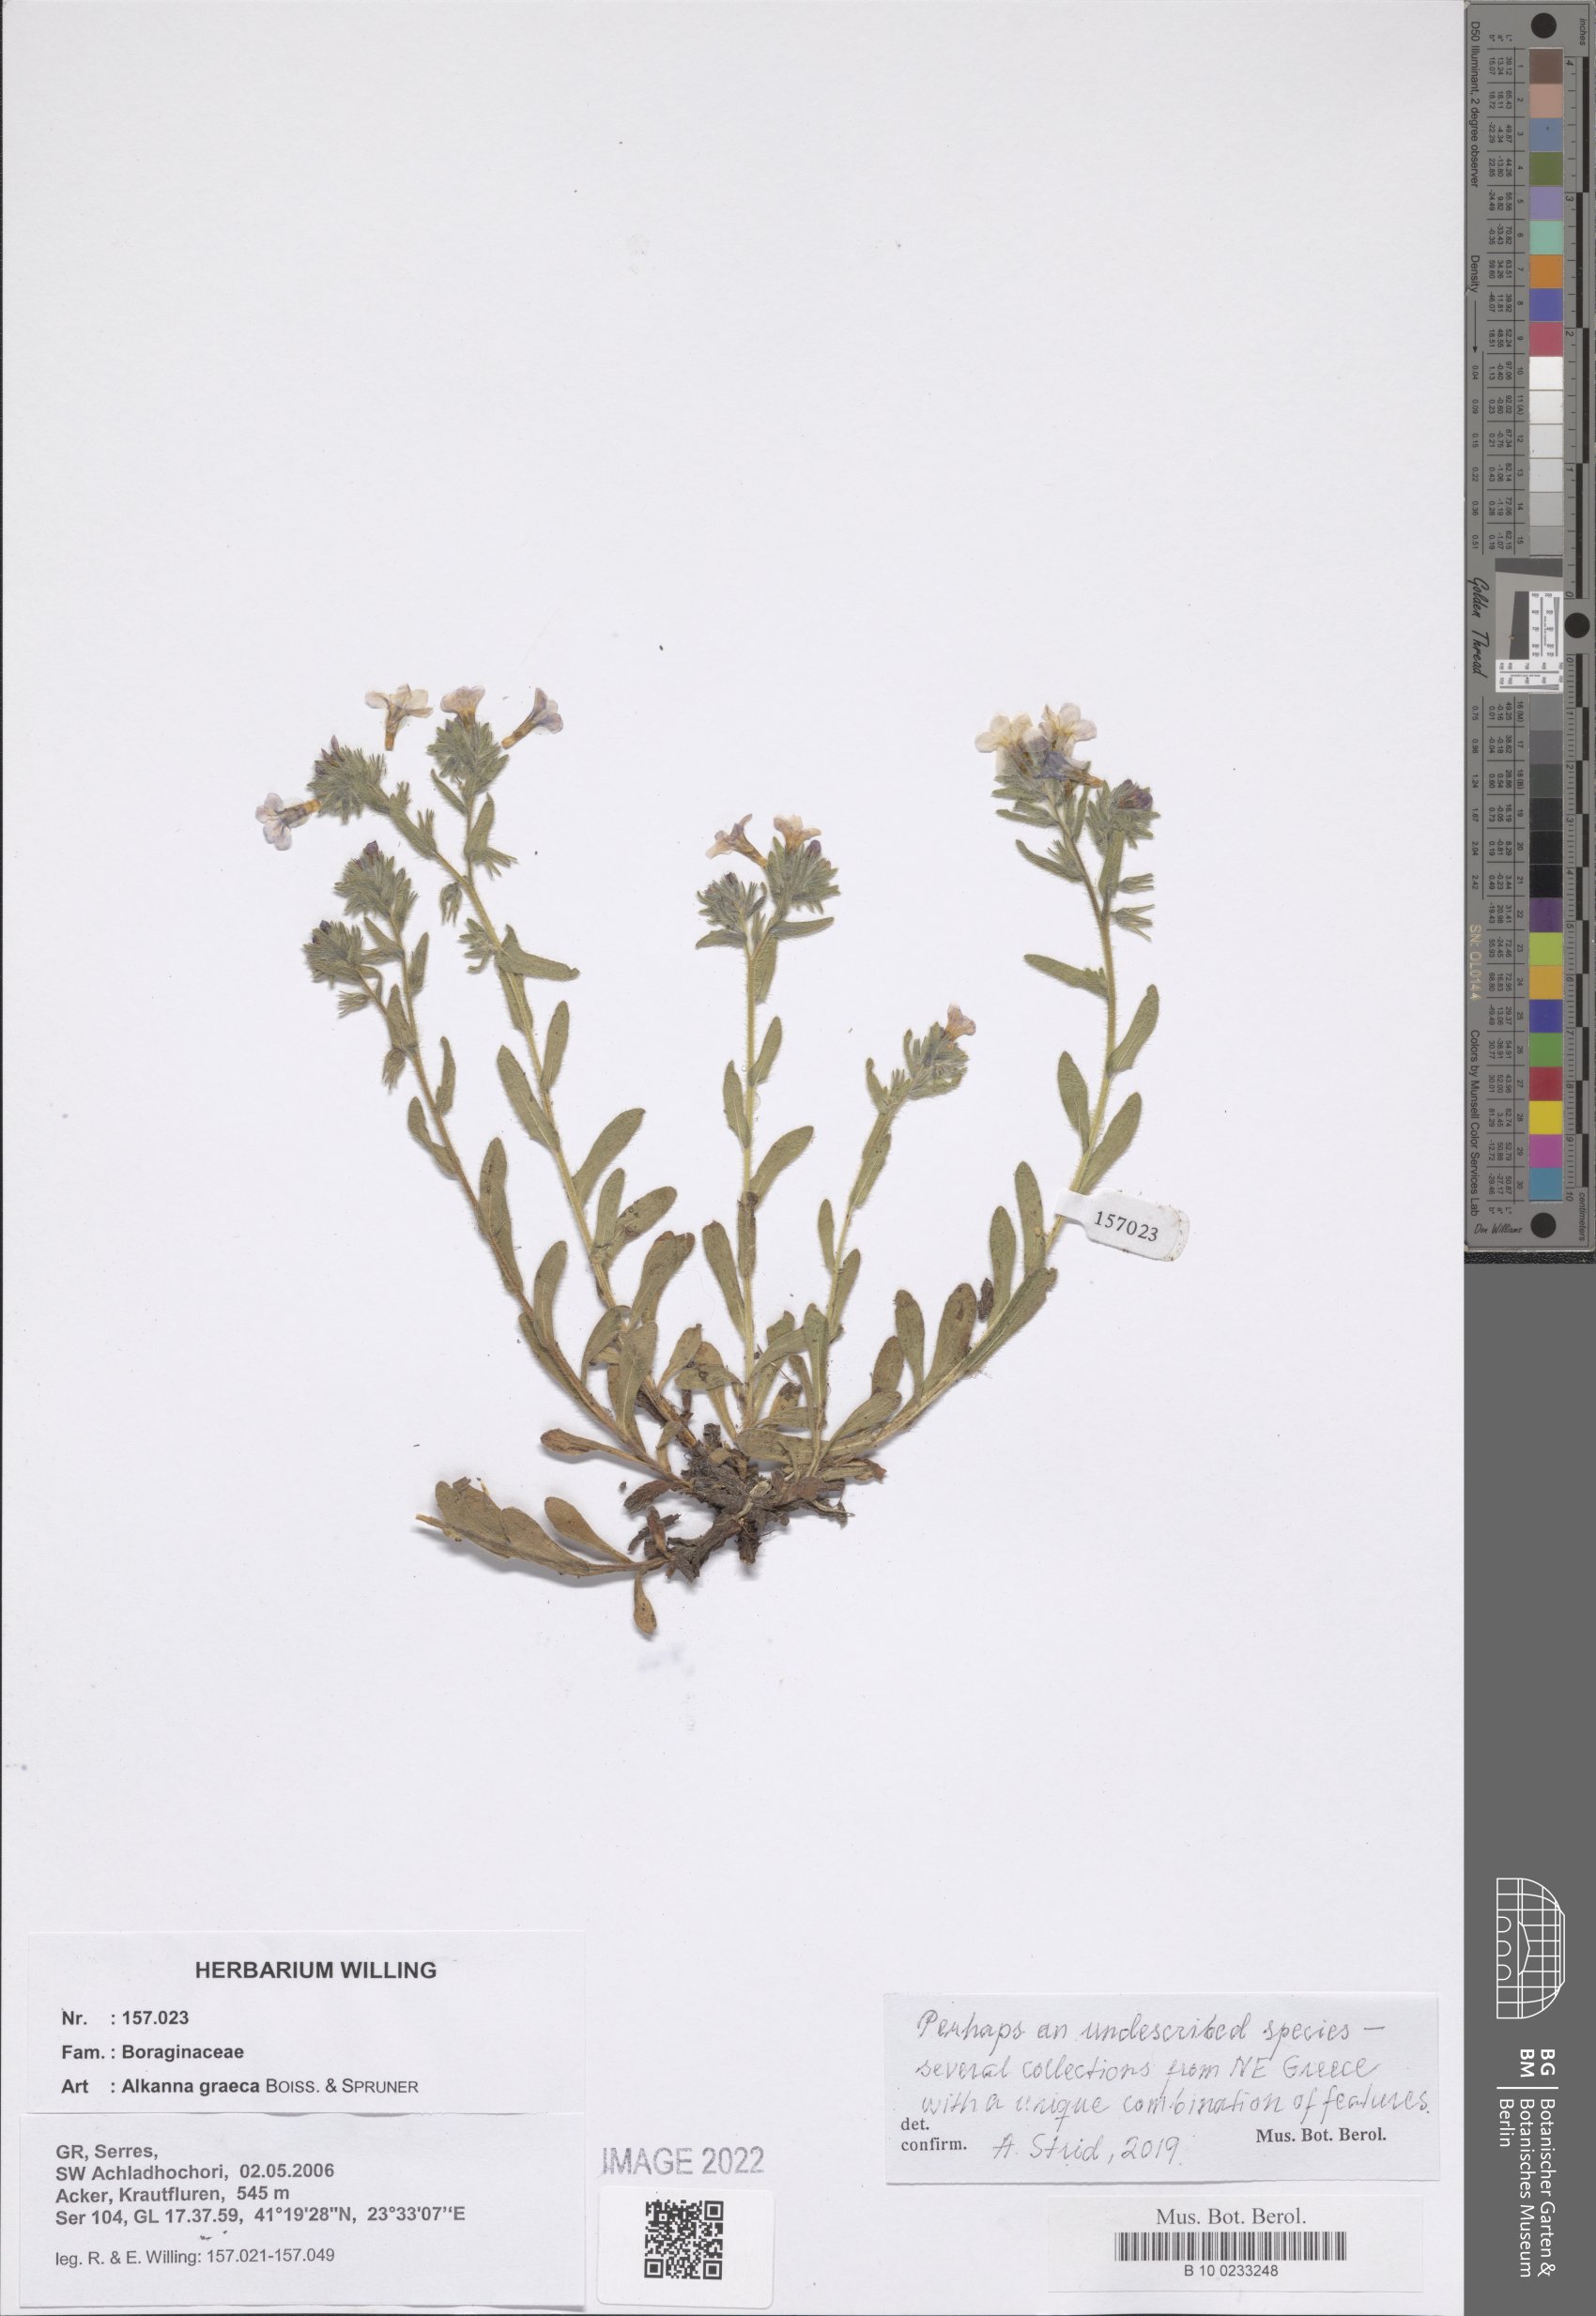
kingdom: Plantae
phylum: Tracheophyta
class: Magnoliopsida
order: Boraginales
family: Boraginaceae
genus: Alkanna
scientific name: Alkanna graeca
